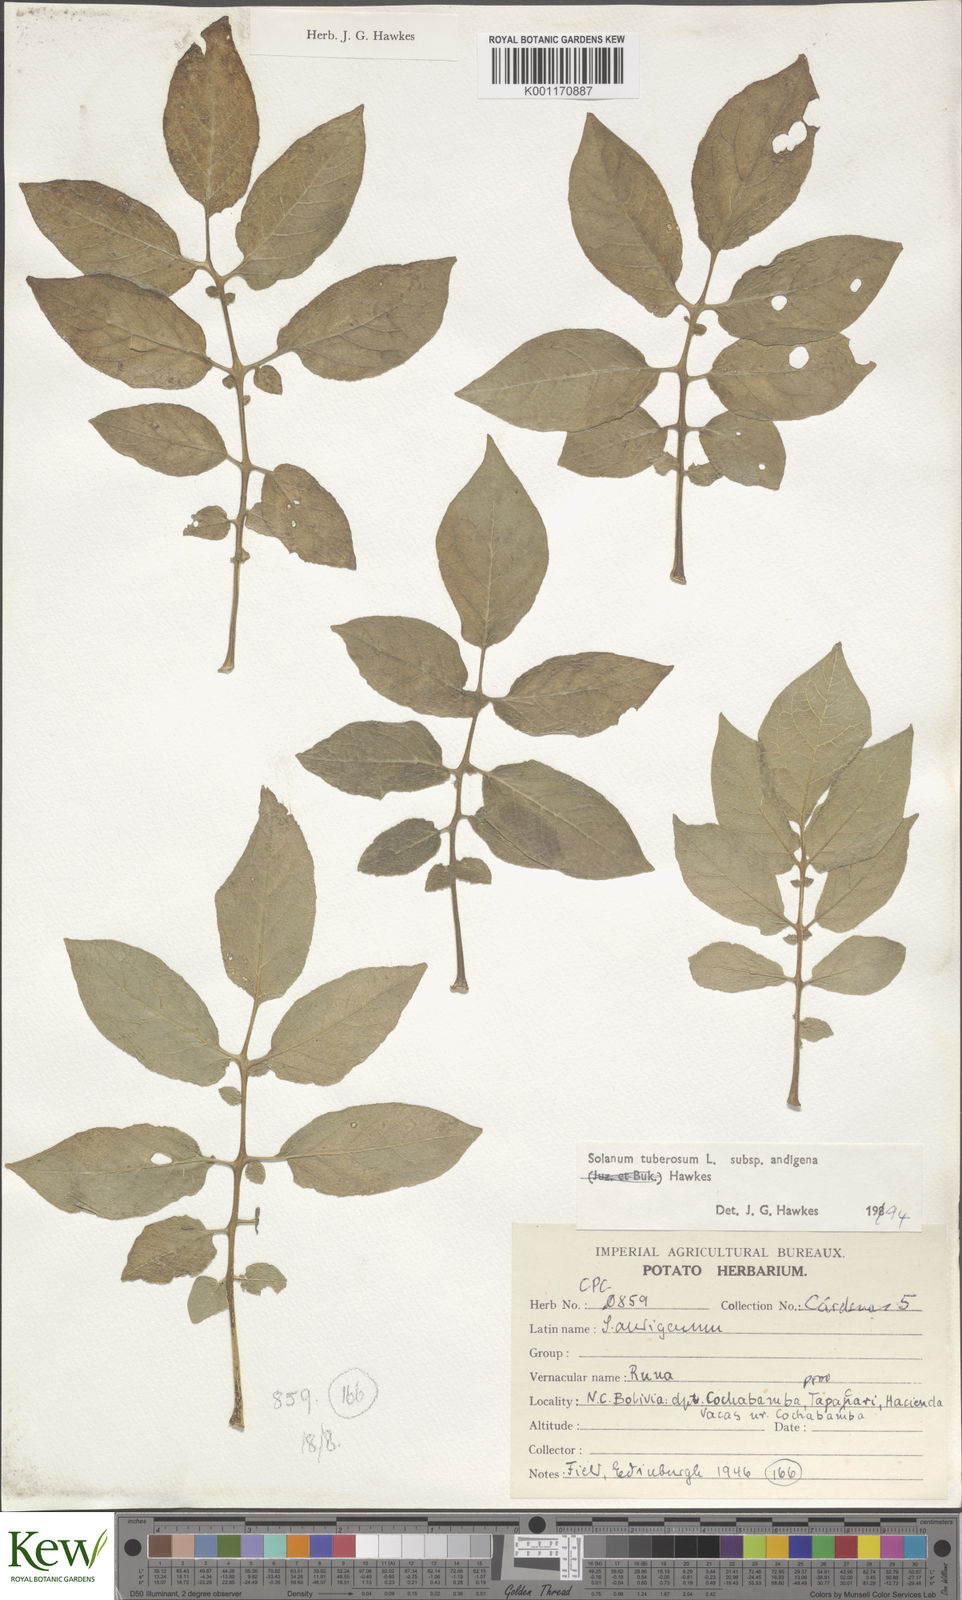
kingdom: Plantae
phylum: Tracheophyta
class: Magnoliopsida
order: Solanales
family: Solanaceae
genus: Solanum
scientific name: Solanum tuberosum
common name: Potato
